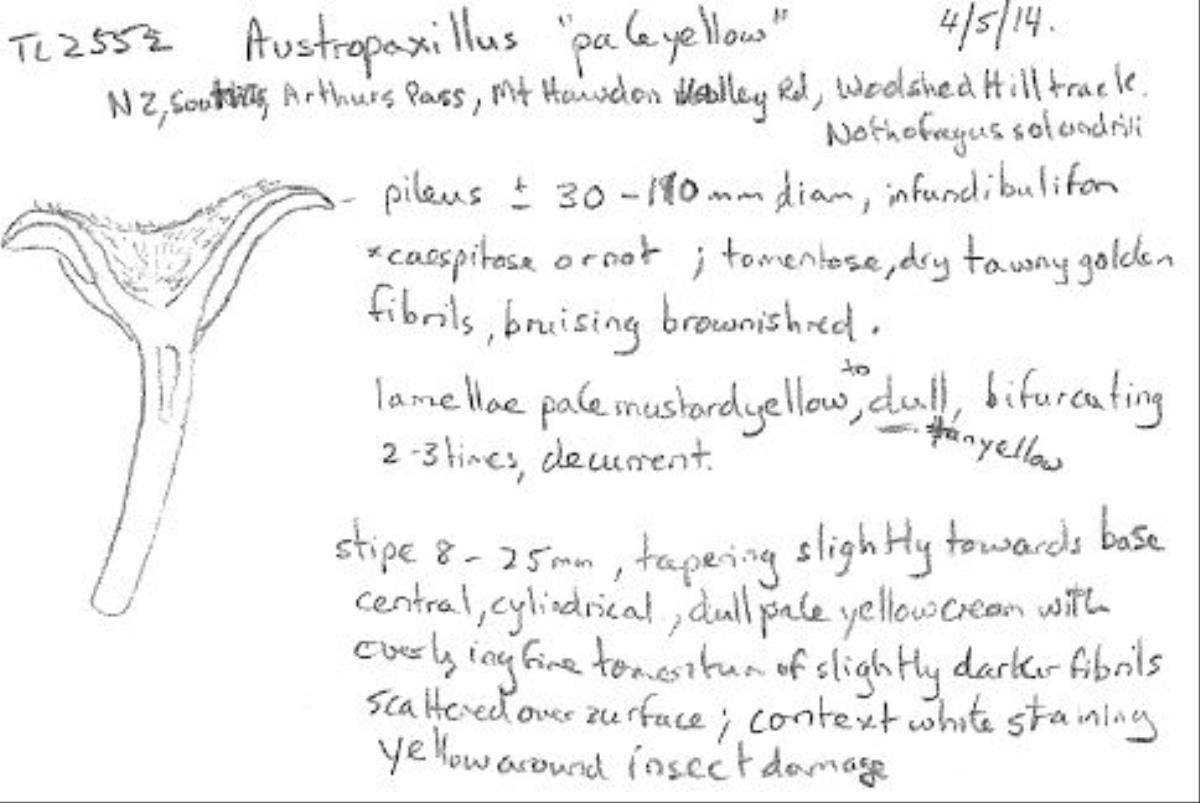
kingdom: Fungi
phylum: Basidiomycota
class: Agaricomycetes
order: Boletales
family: Serpulaceae
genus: Austropaxillus
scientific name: Austropaxillus mcnabbii
